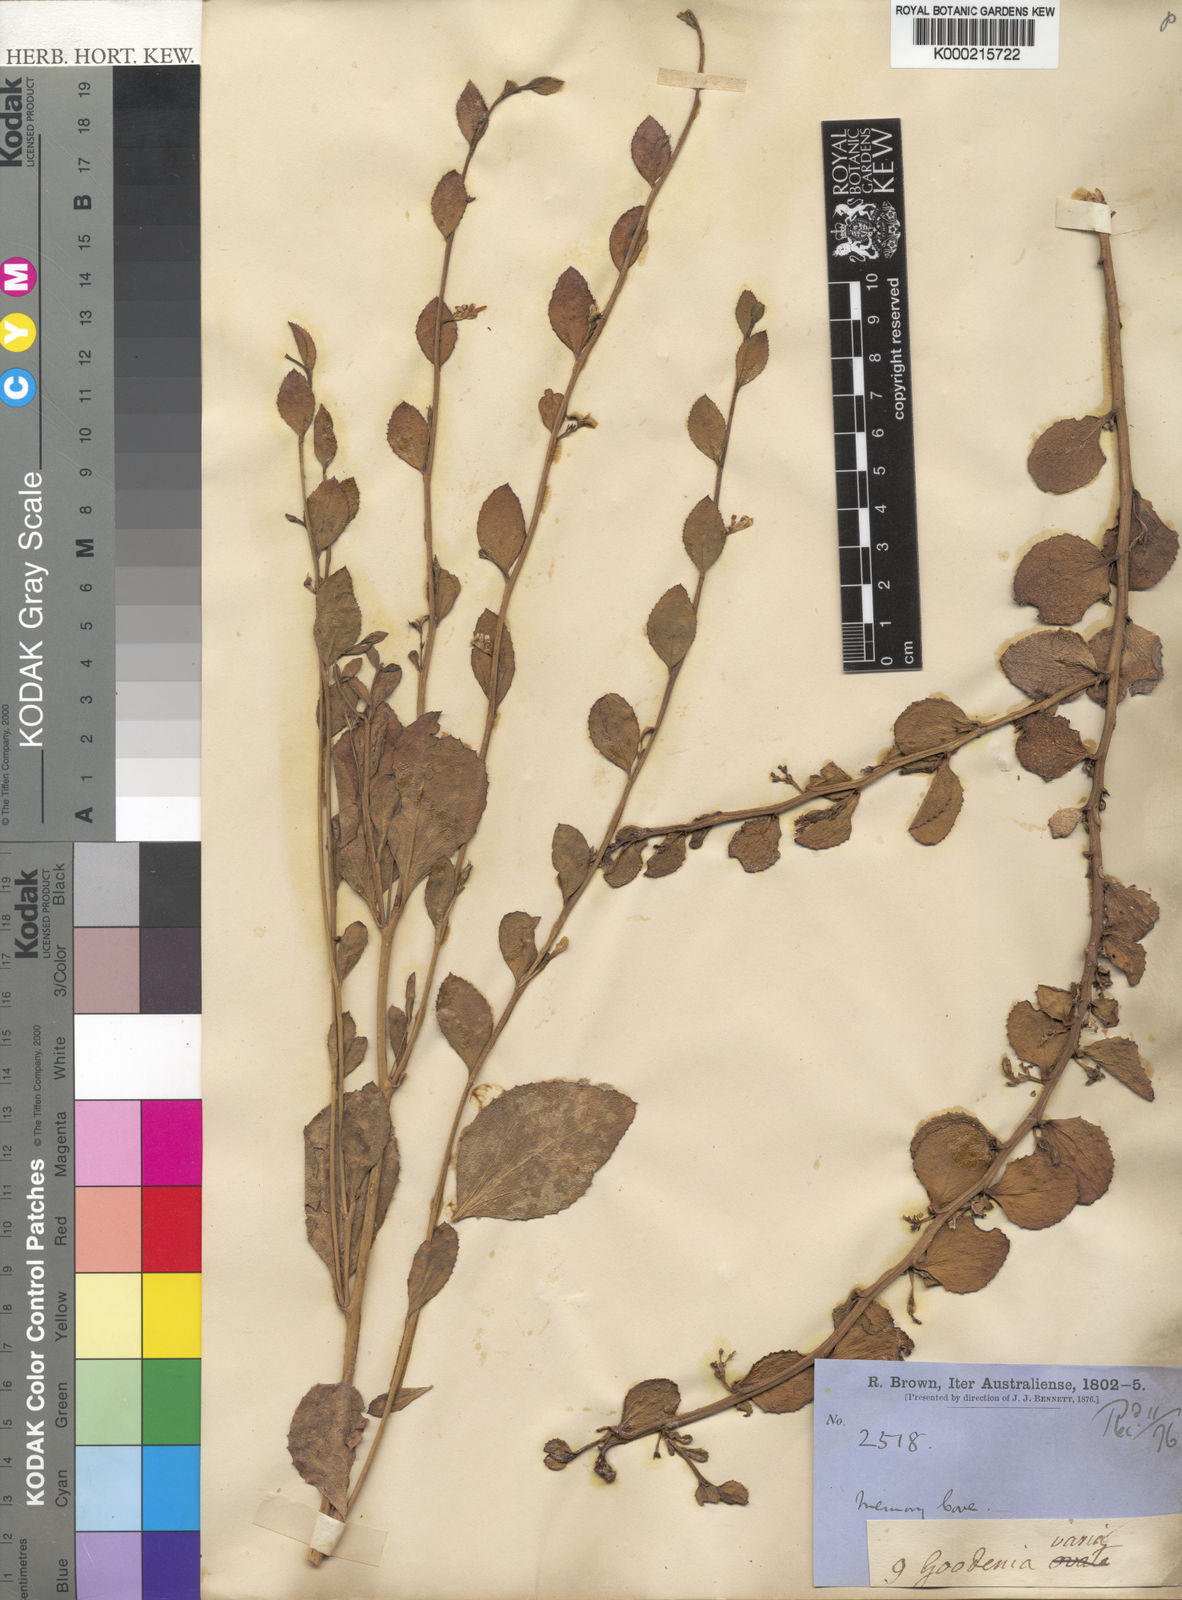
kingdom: Plantae
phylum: Tracheophyta
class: Magnoliopsida
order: Asterales
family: Goodeniaceae
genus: Goodenia
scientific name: Goodenia varia
